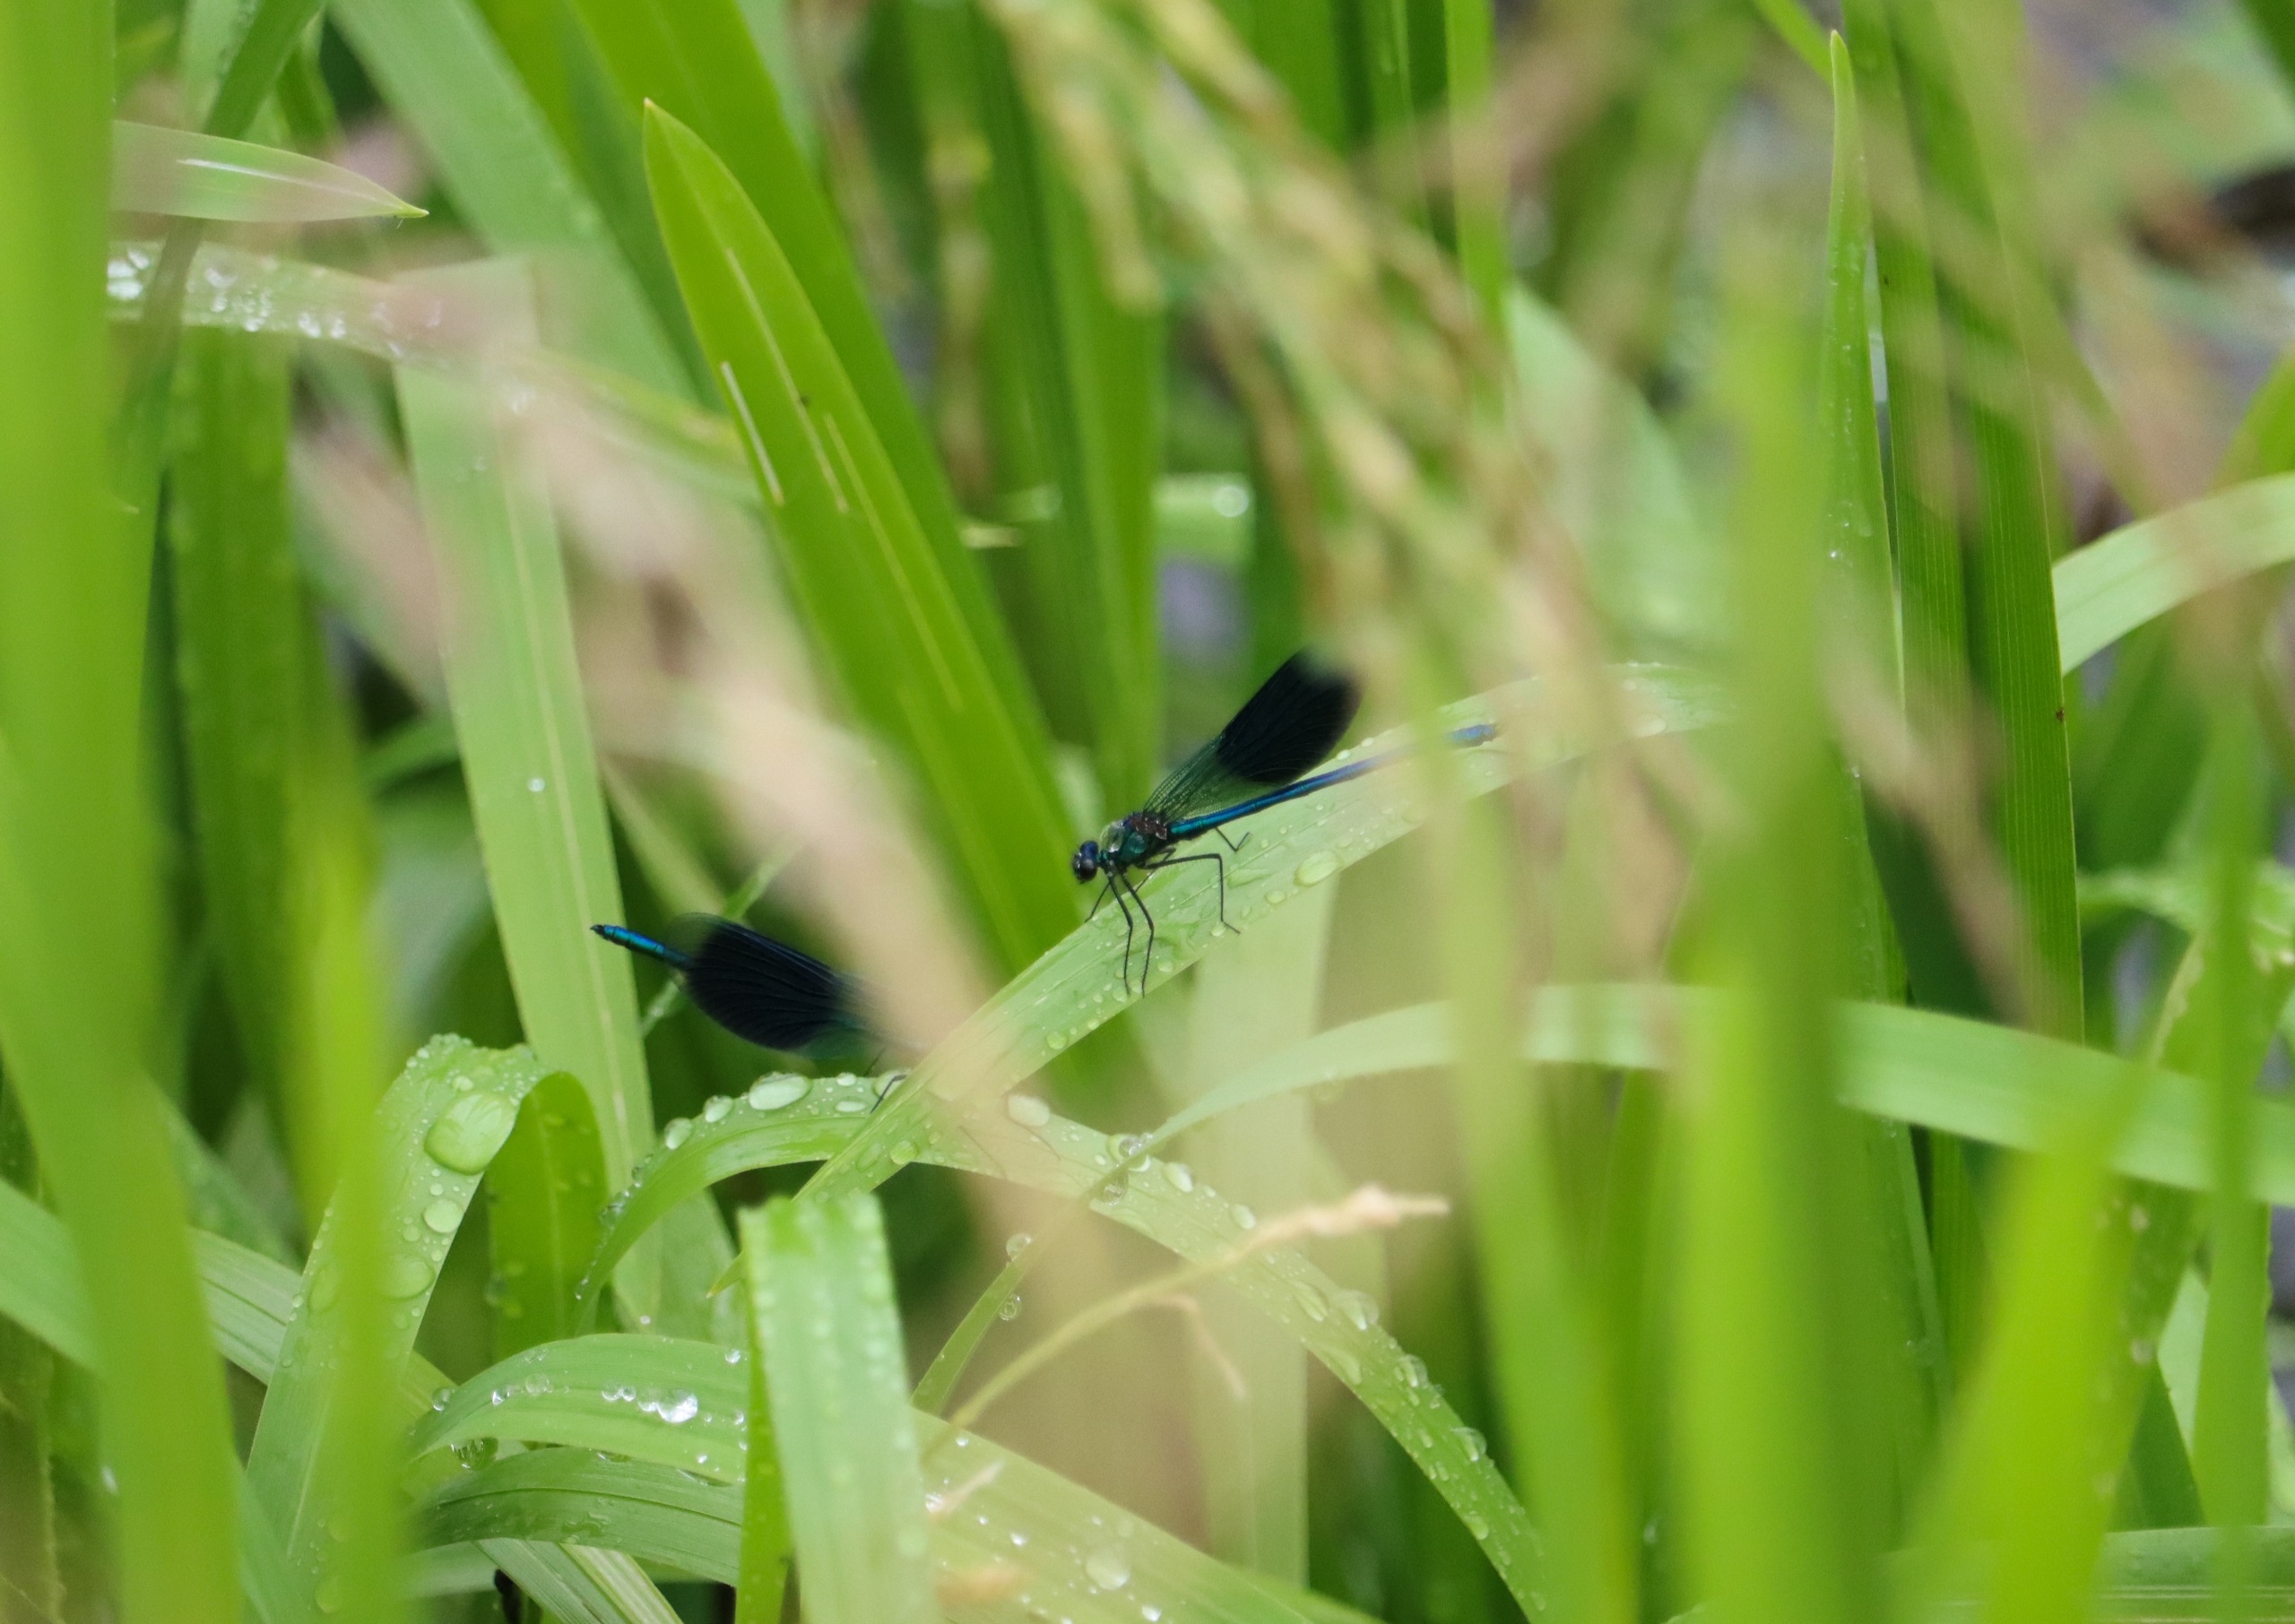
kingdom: Animalia
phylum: Arthropoda
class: Insecta
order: Odonata
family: Calopterygidae
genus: Calopteryx
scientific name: Calopteryx splendens
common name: Blåbåndet pragtvandnymfe
